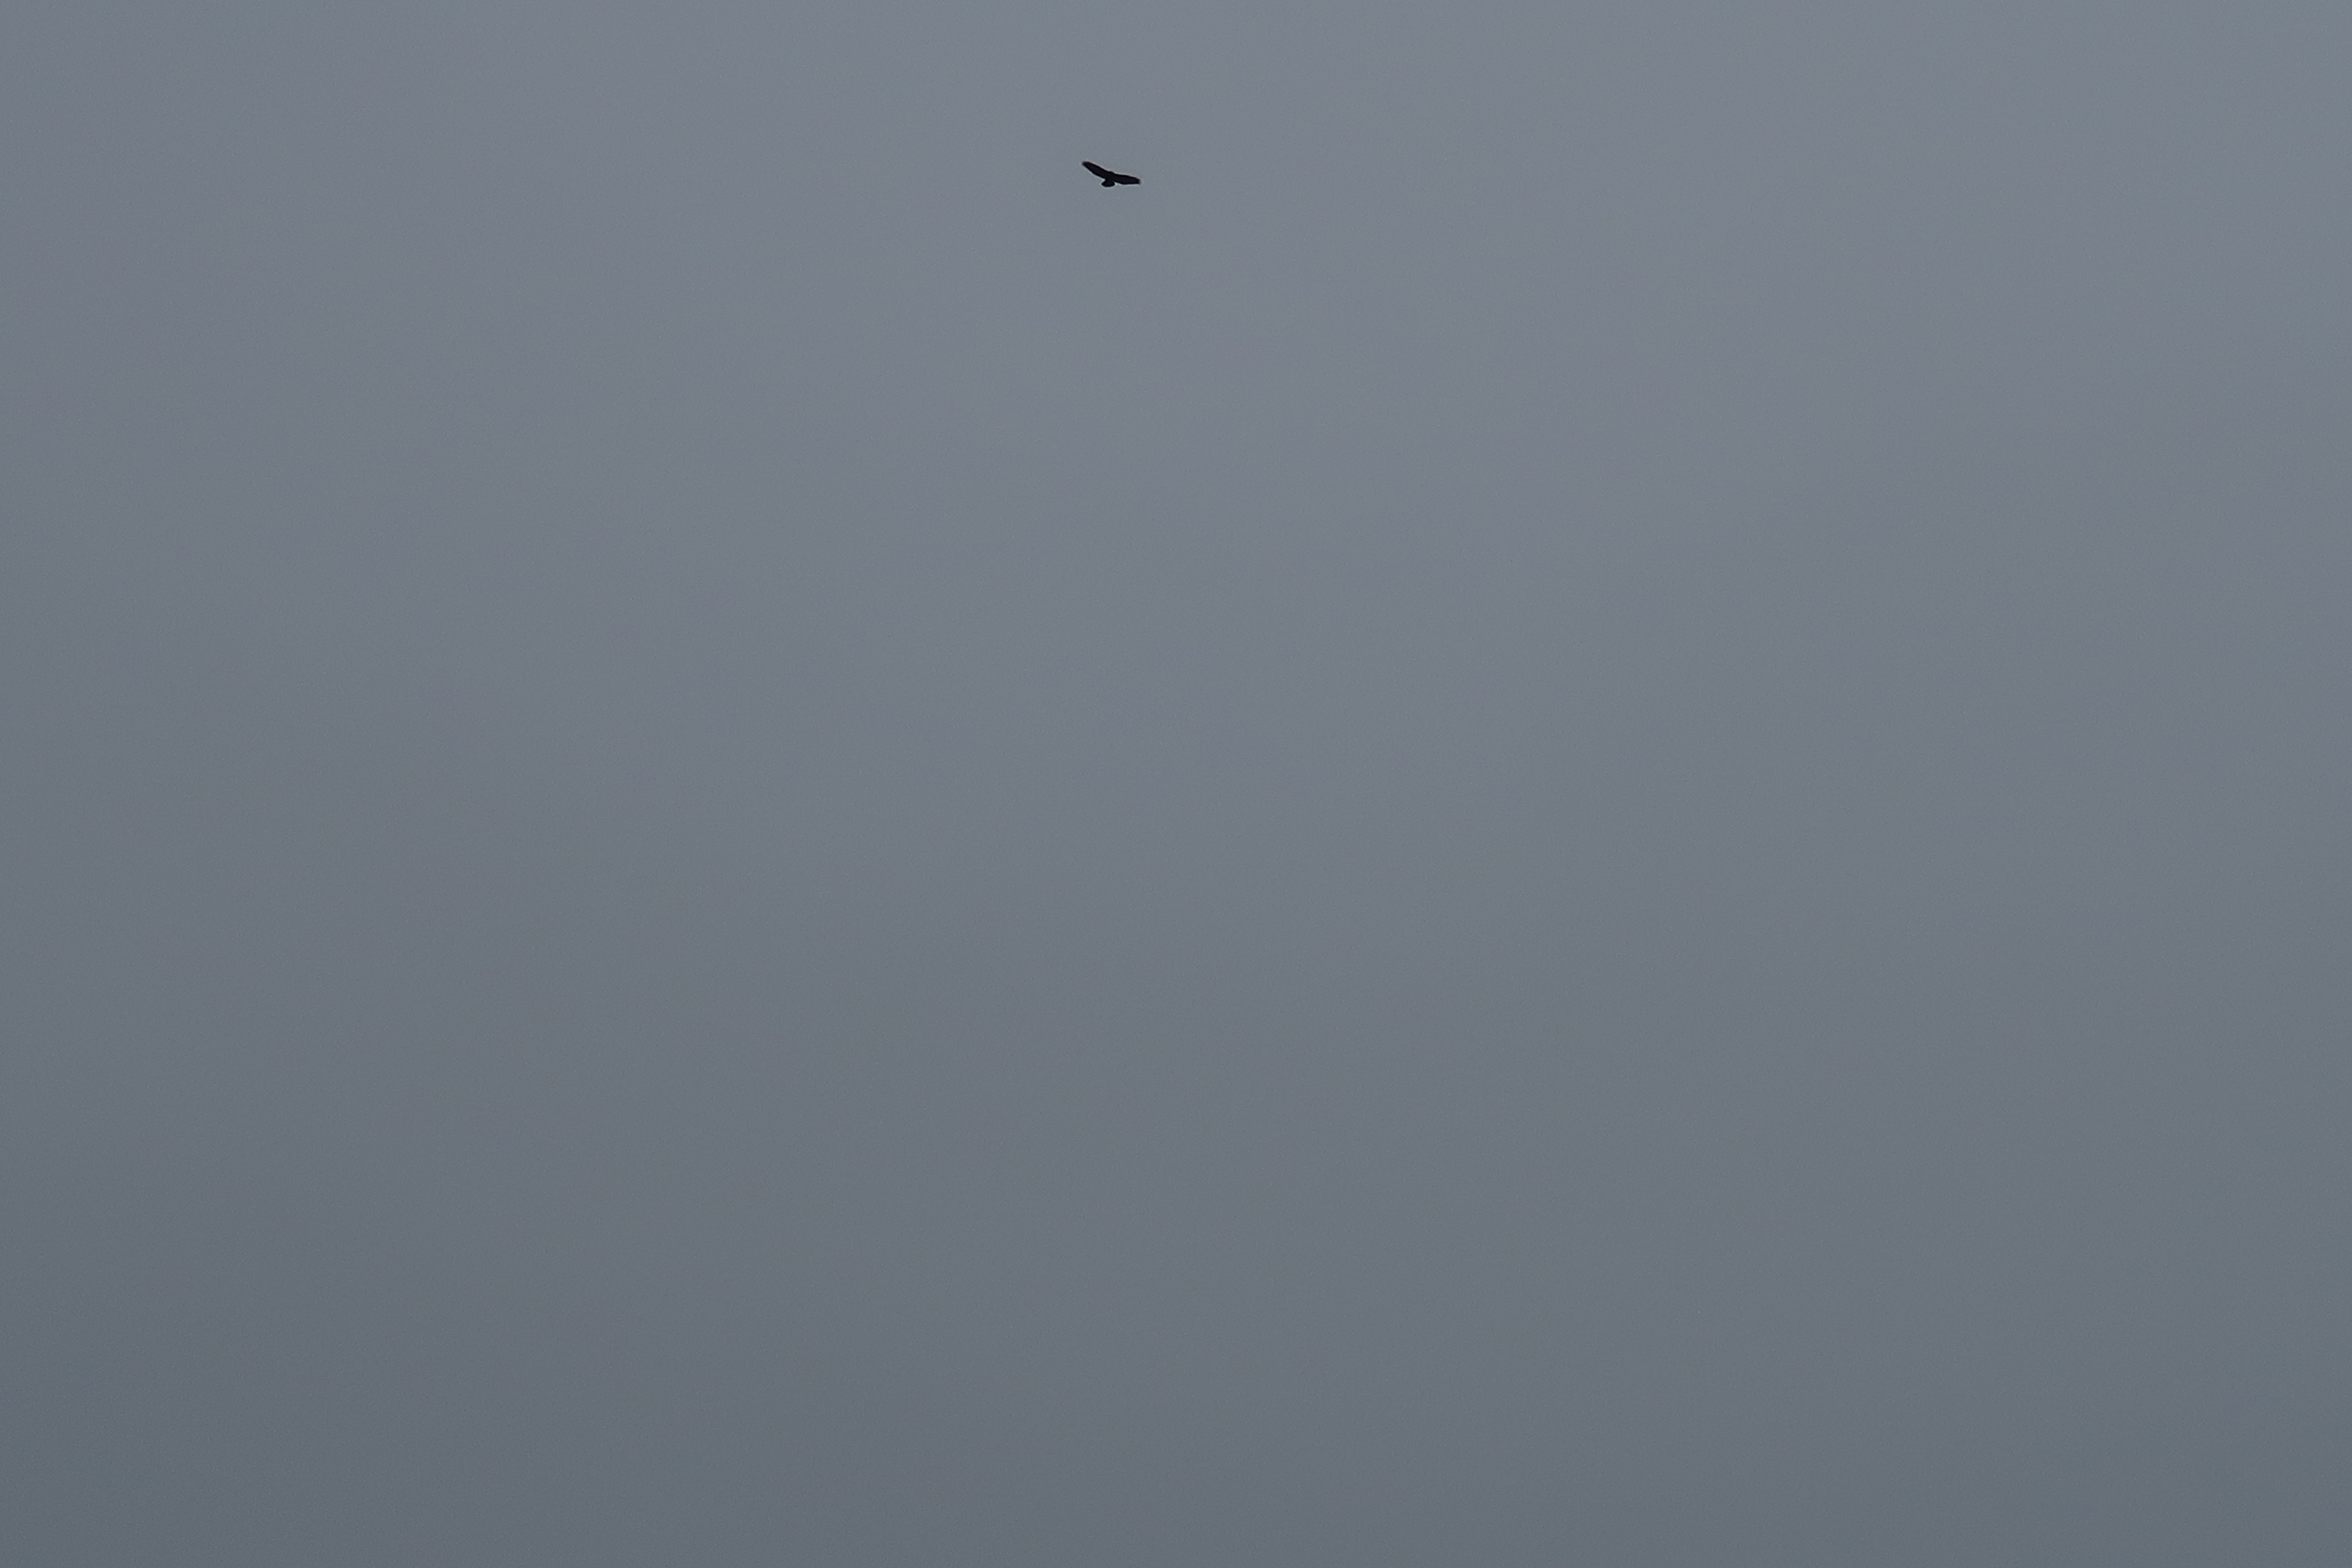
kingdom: Animalia
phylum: Chordata
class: Aves
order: Accipitriformes
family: Accipitridae
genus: Buteo
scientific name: Buteo buteo
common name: Musvåge
